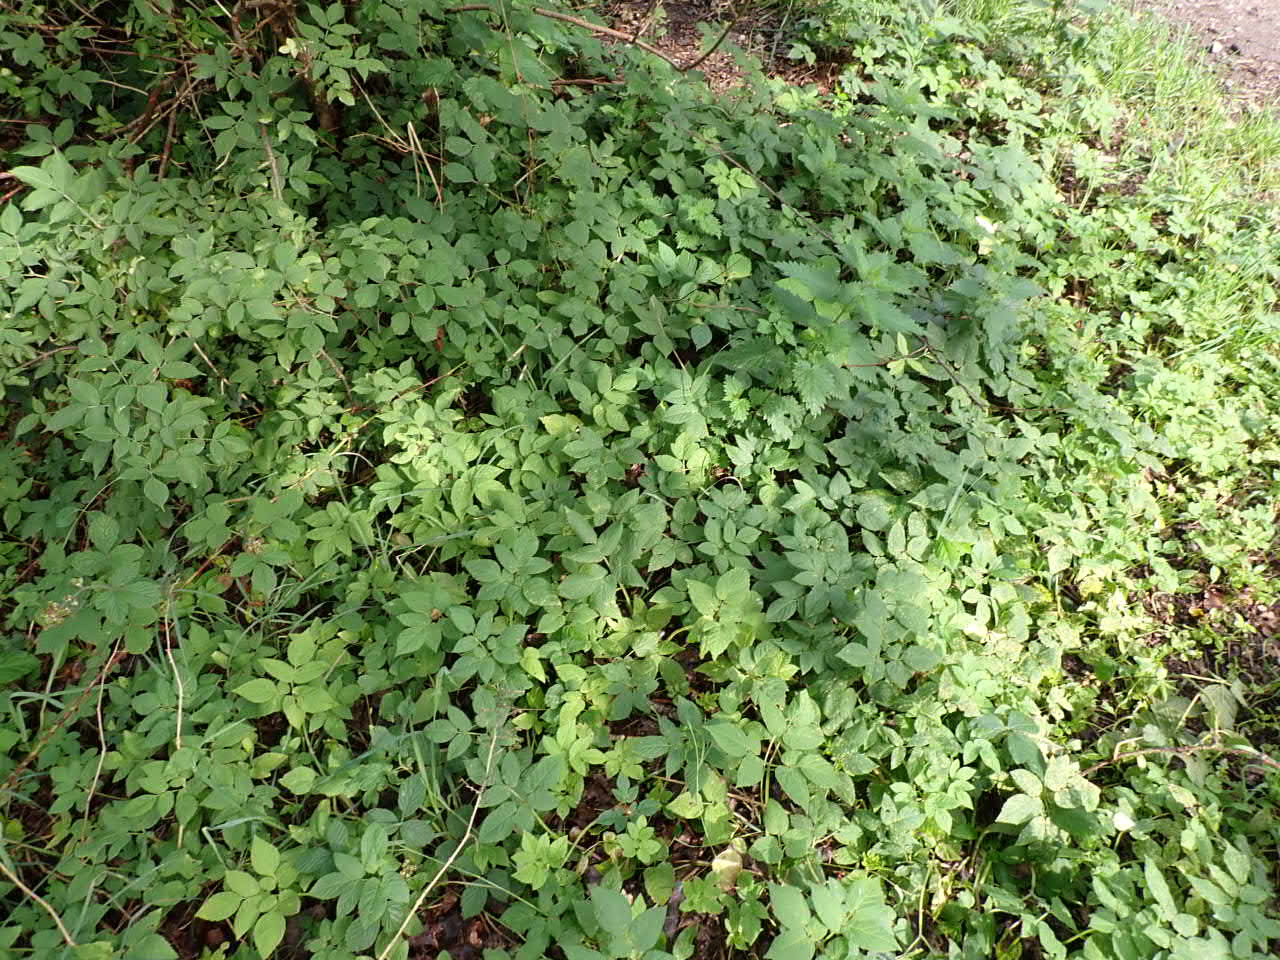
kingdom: Plantae
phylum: Tracheophyta
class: Magnoliopsida
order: Apiales
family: Apiaceae
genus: Aegopodium
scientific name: Aegopodium podagraria
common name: Skvalderkål
